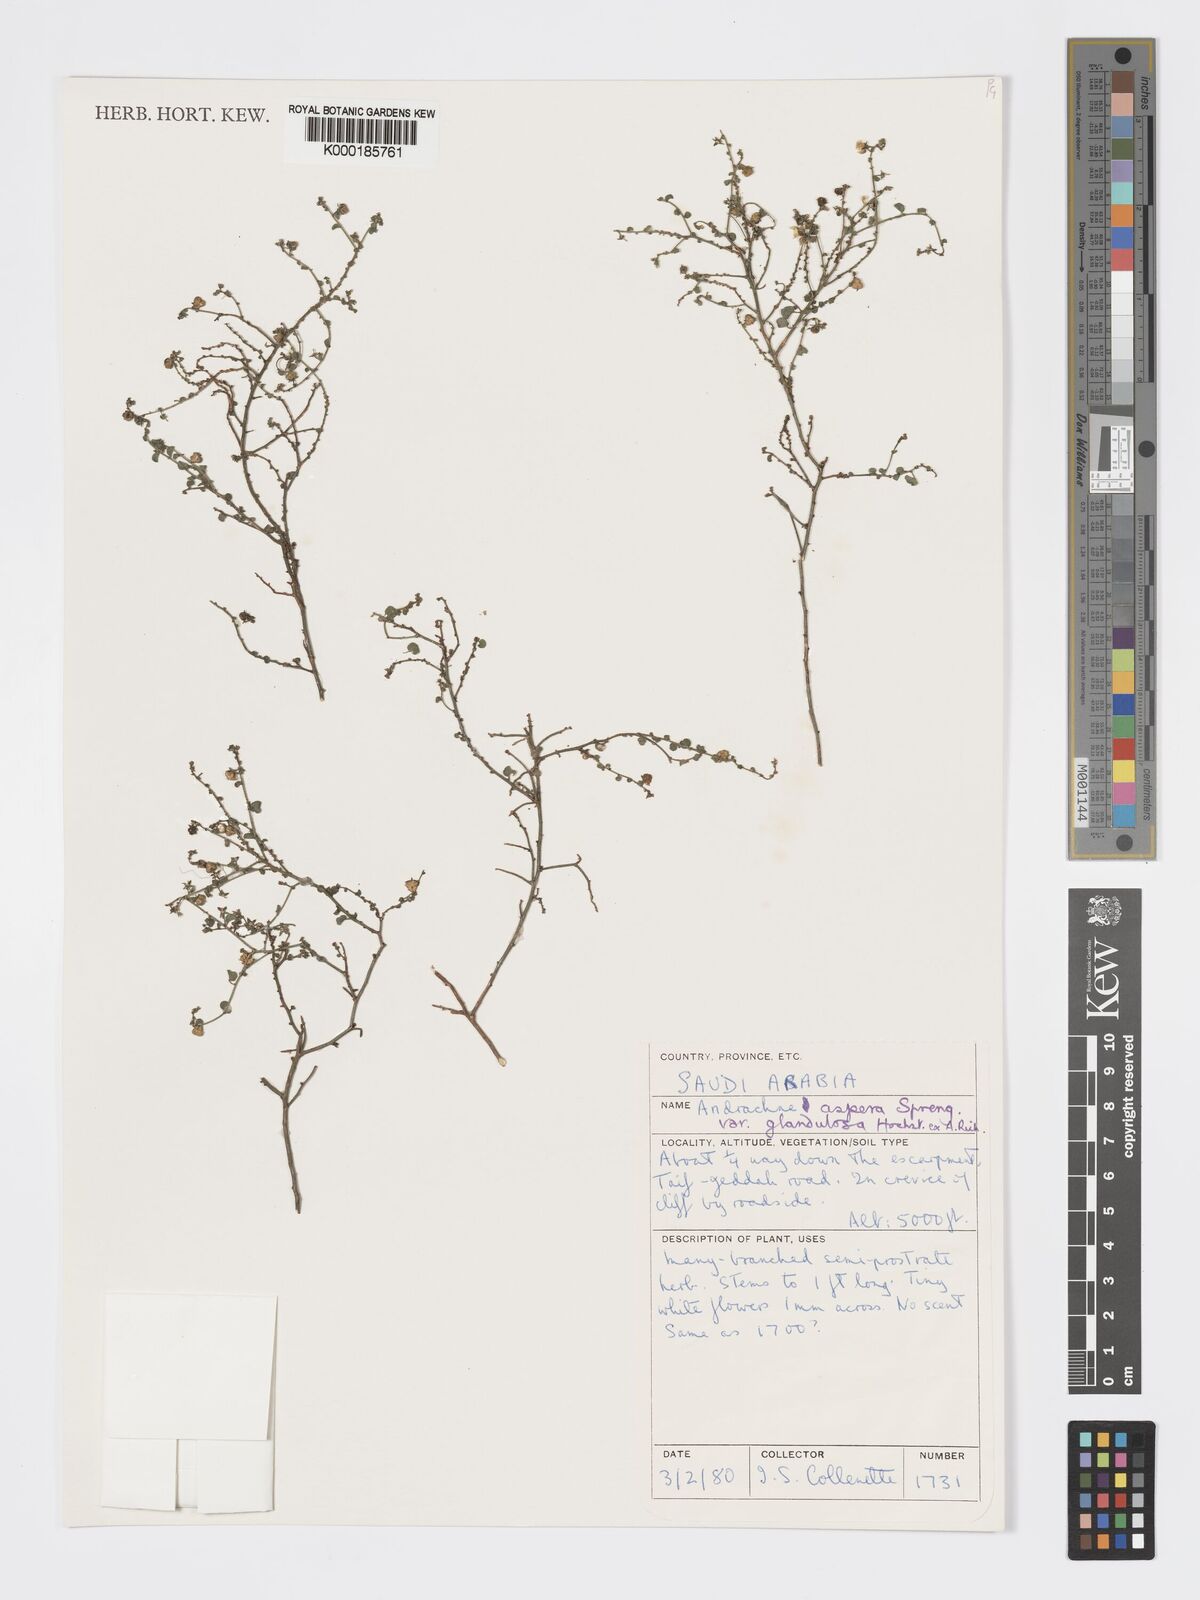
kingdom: Plantae
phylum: Tracheophyta
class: Magnoliopsida
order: Malpighiales
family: Phyllanthaceae
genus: Andrachne
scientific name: Andrachne aspera
